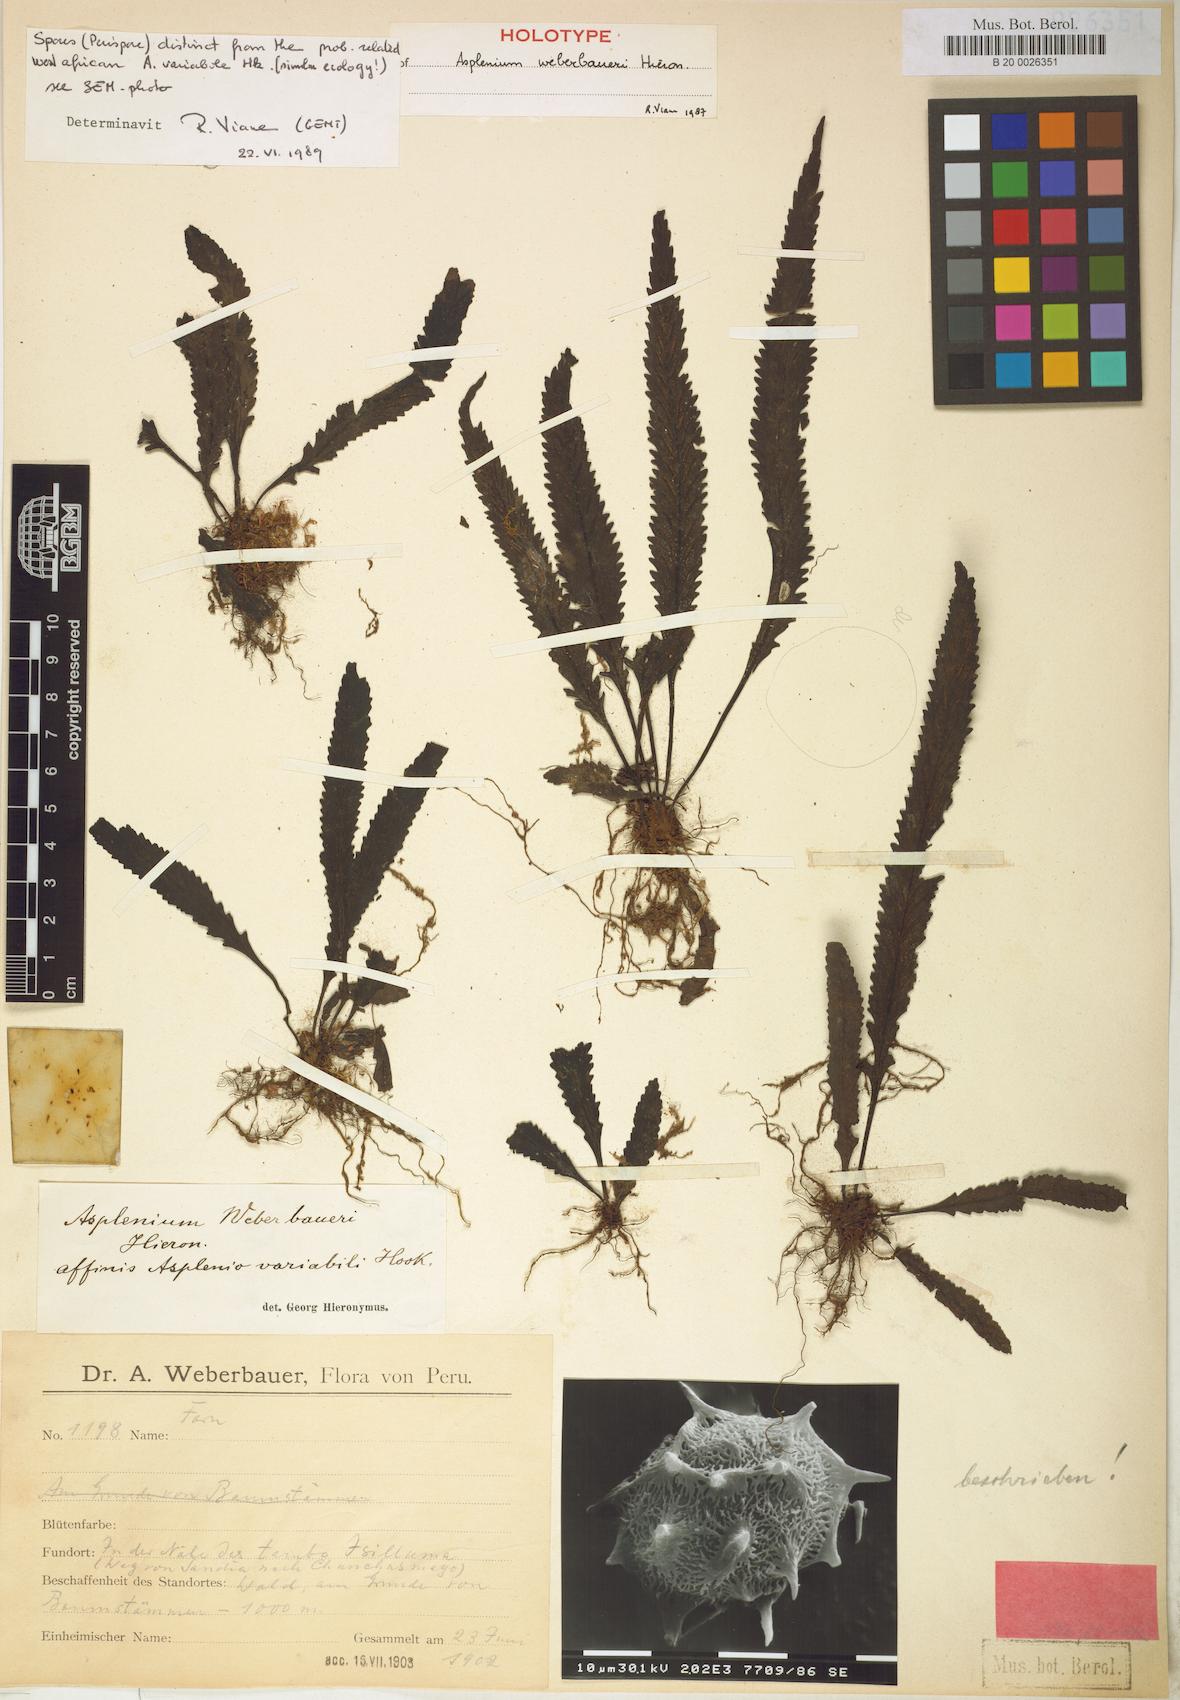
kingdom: Plantae
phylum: Tracheophyta
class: Polypodiopsida
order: Polypodiales
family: Aspleniaceae
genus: Asplenium
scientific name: Asplenium serratum
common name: Wild birdnest fern
